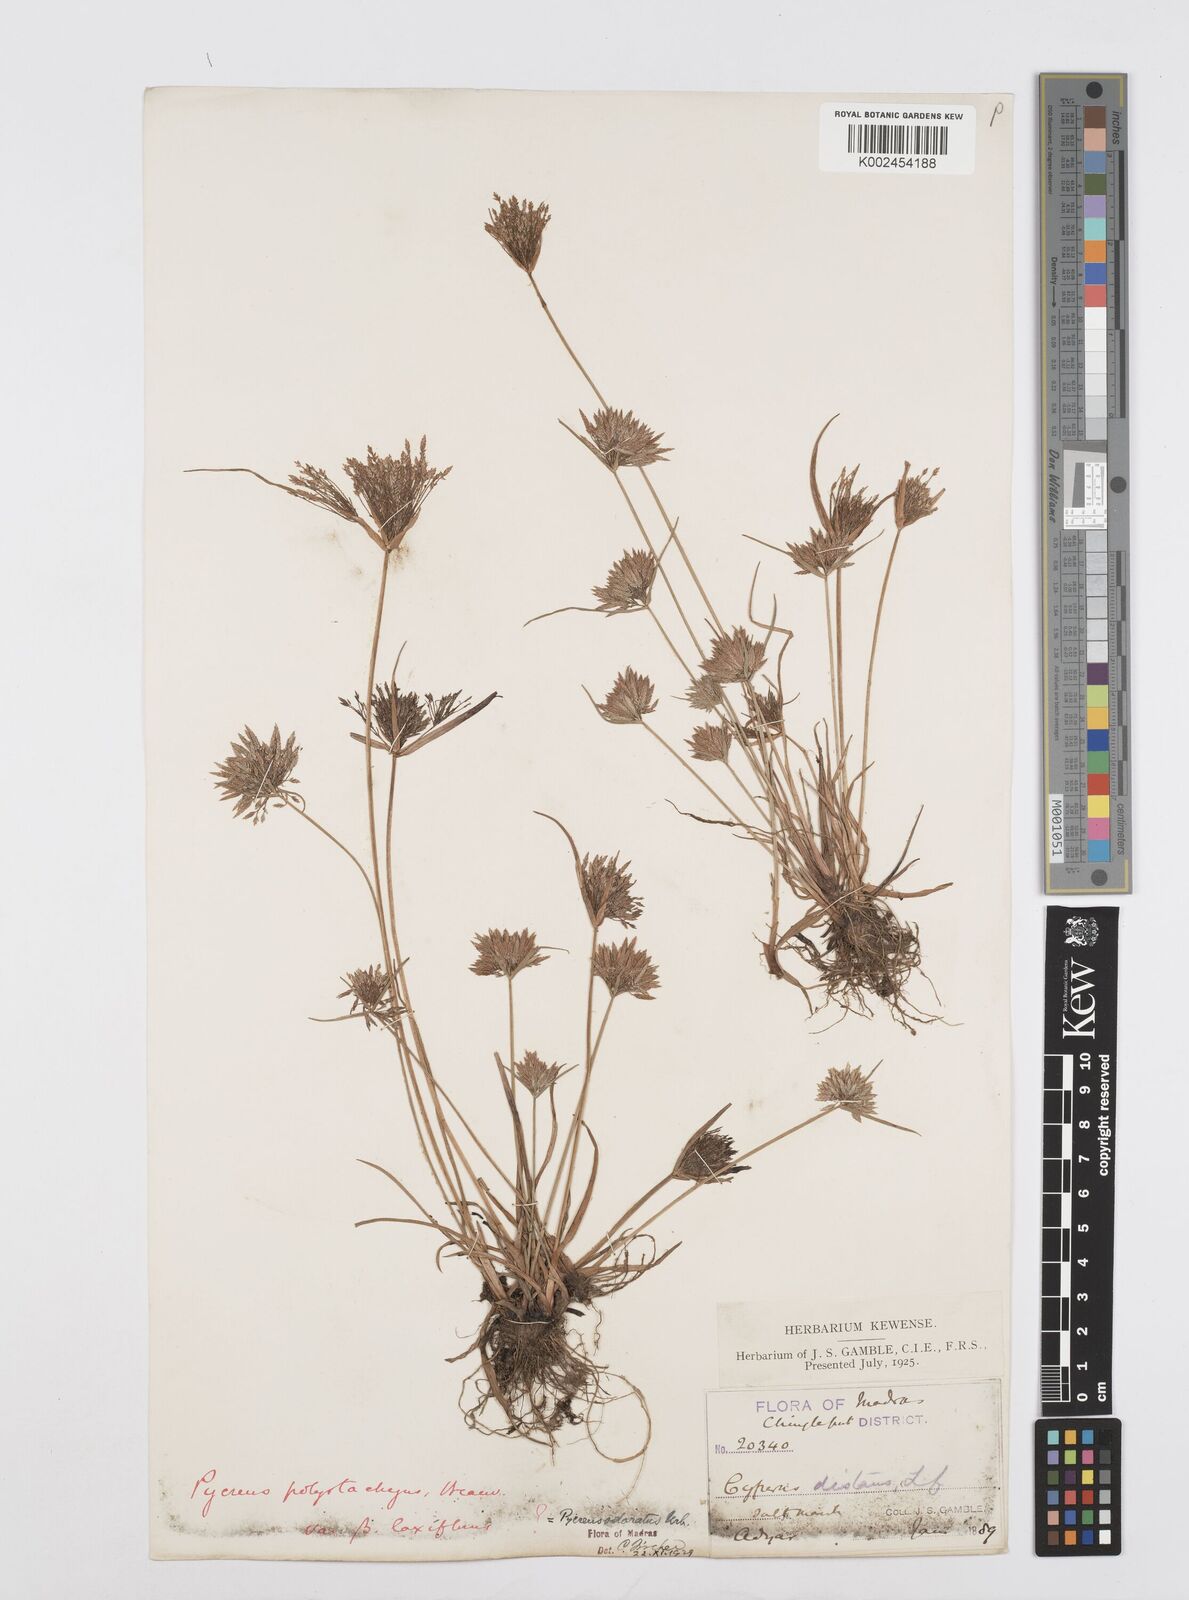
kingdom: Plantae
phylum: Tracheophyta
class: Liliopsida
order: Poales
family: Cyperaceae
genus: Cyperus
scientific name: Cyperus polystachyos
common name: Bunchy flat sedge
